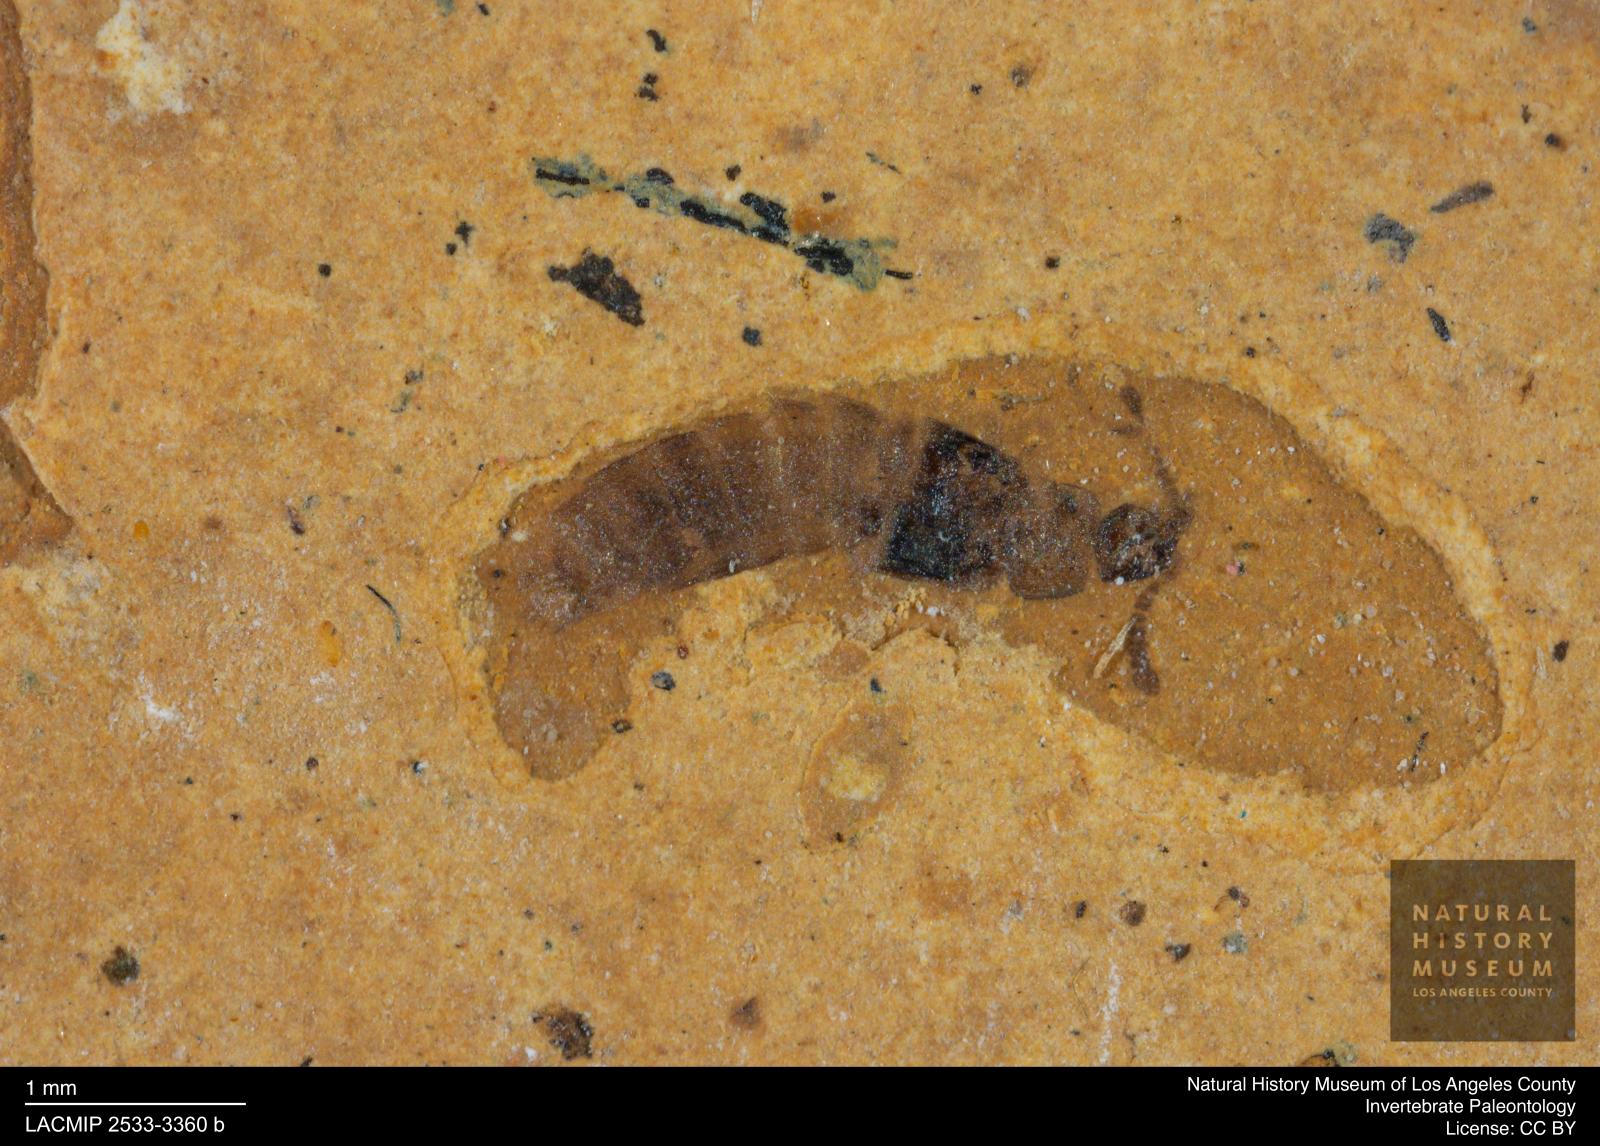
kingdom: Animalia
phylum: Arthropoda
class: Insecta
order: Coleoptera
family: Staphylinidae
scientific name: Staphylinidae
